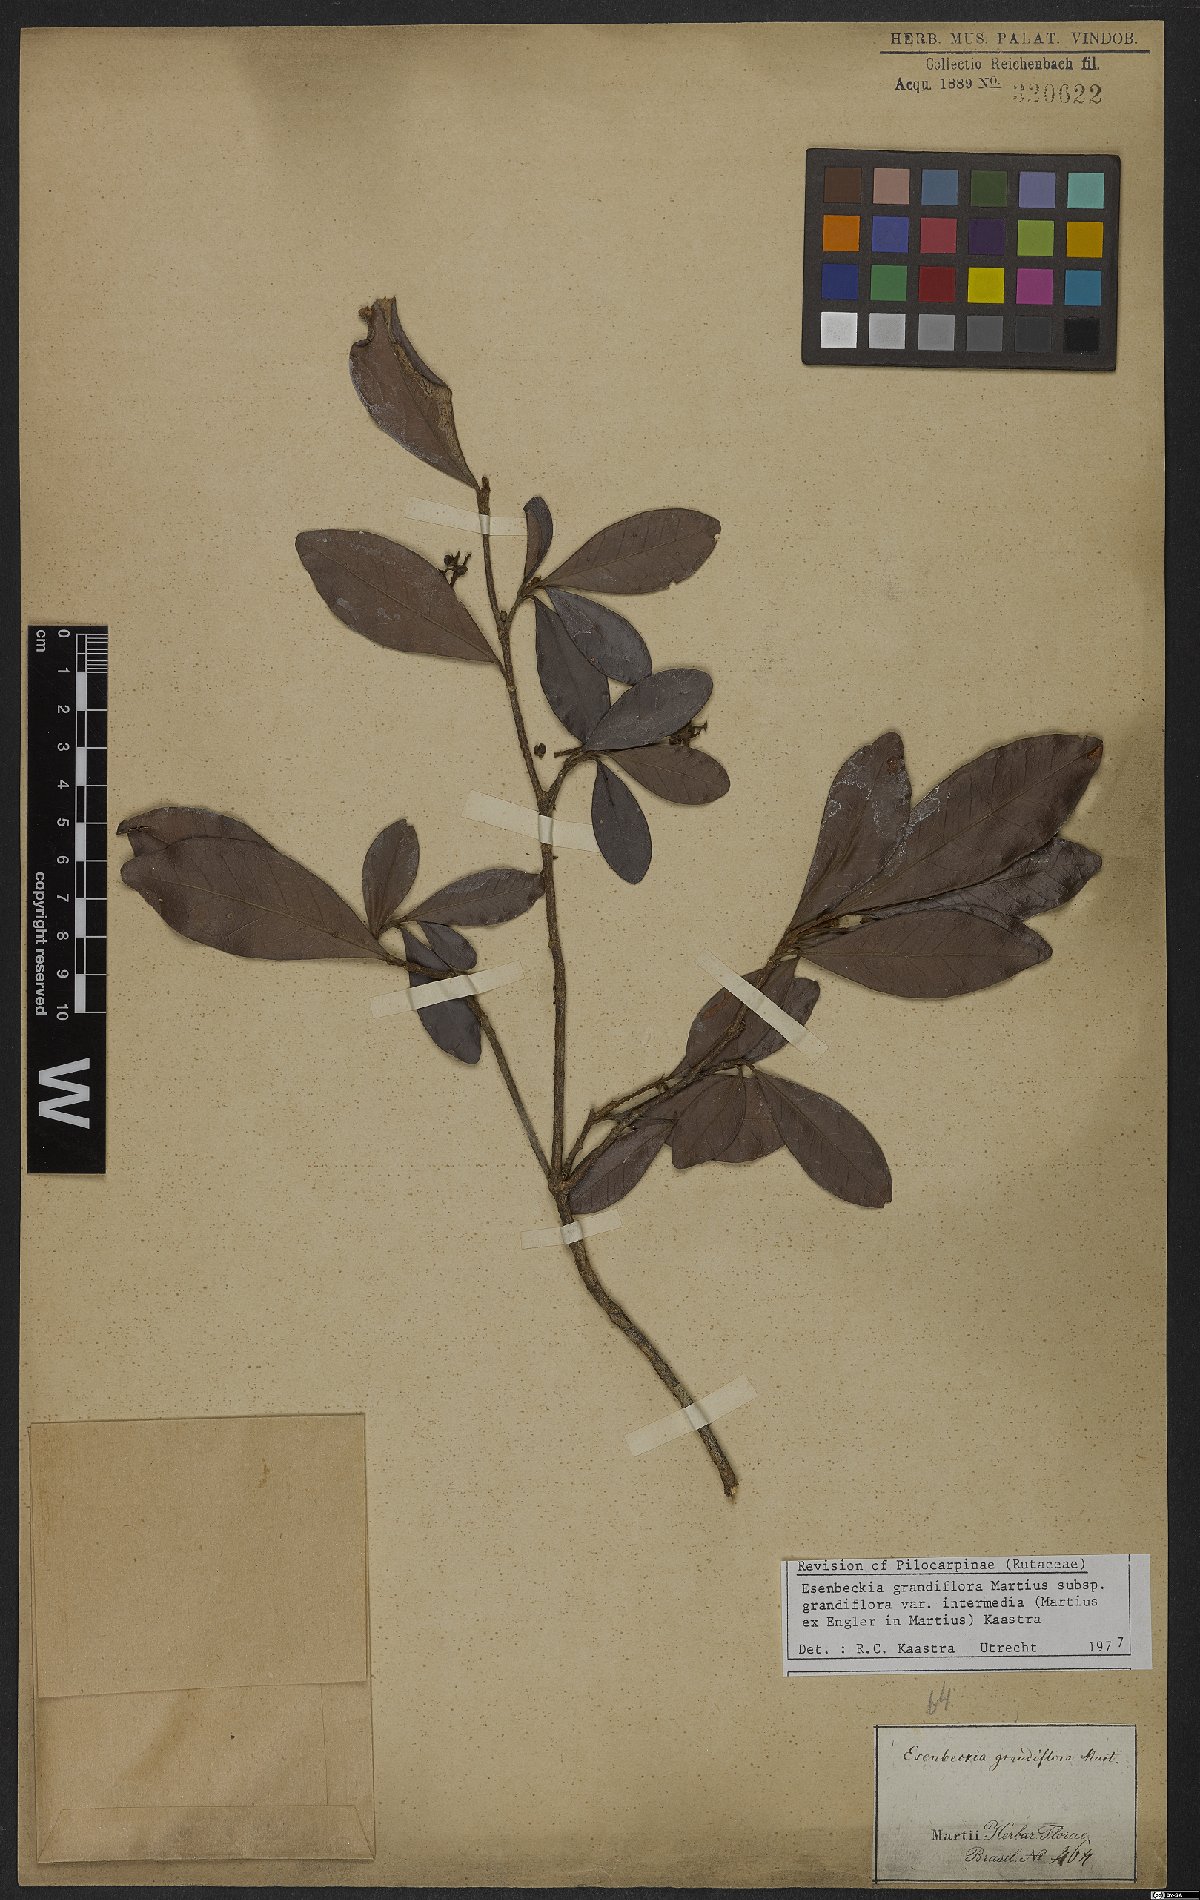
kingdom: Plantae
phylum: Tracheophyta
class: Magnoliopsida
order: Sapindales
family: Rutaceae
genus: Esenbeckia
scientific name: Esenbeckia grandiflora
